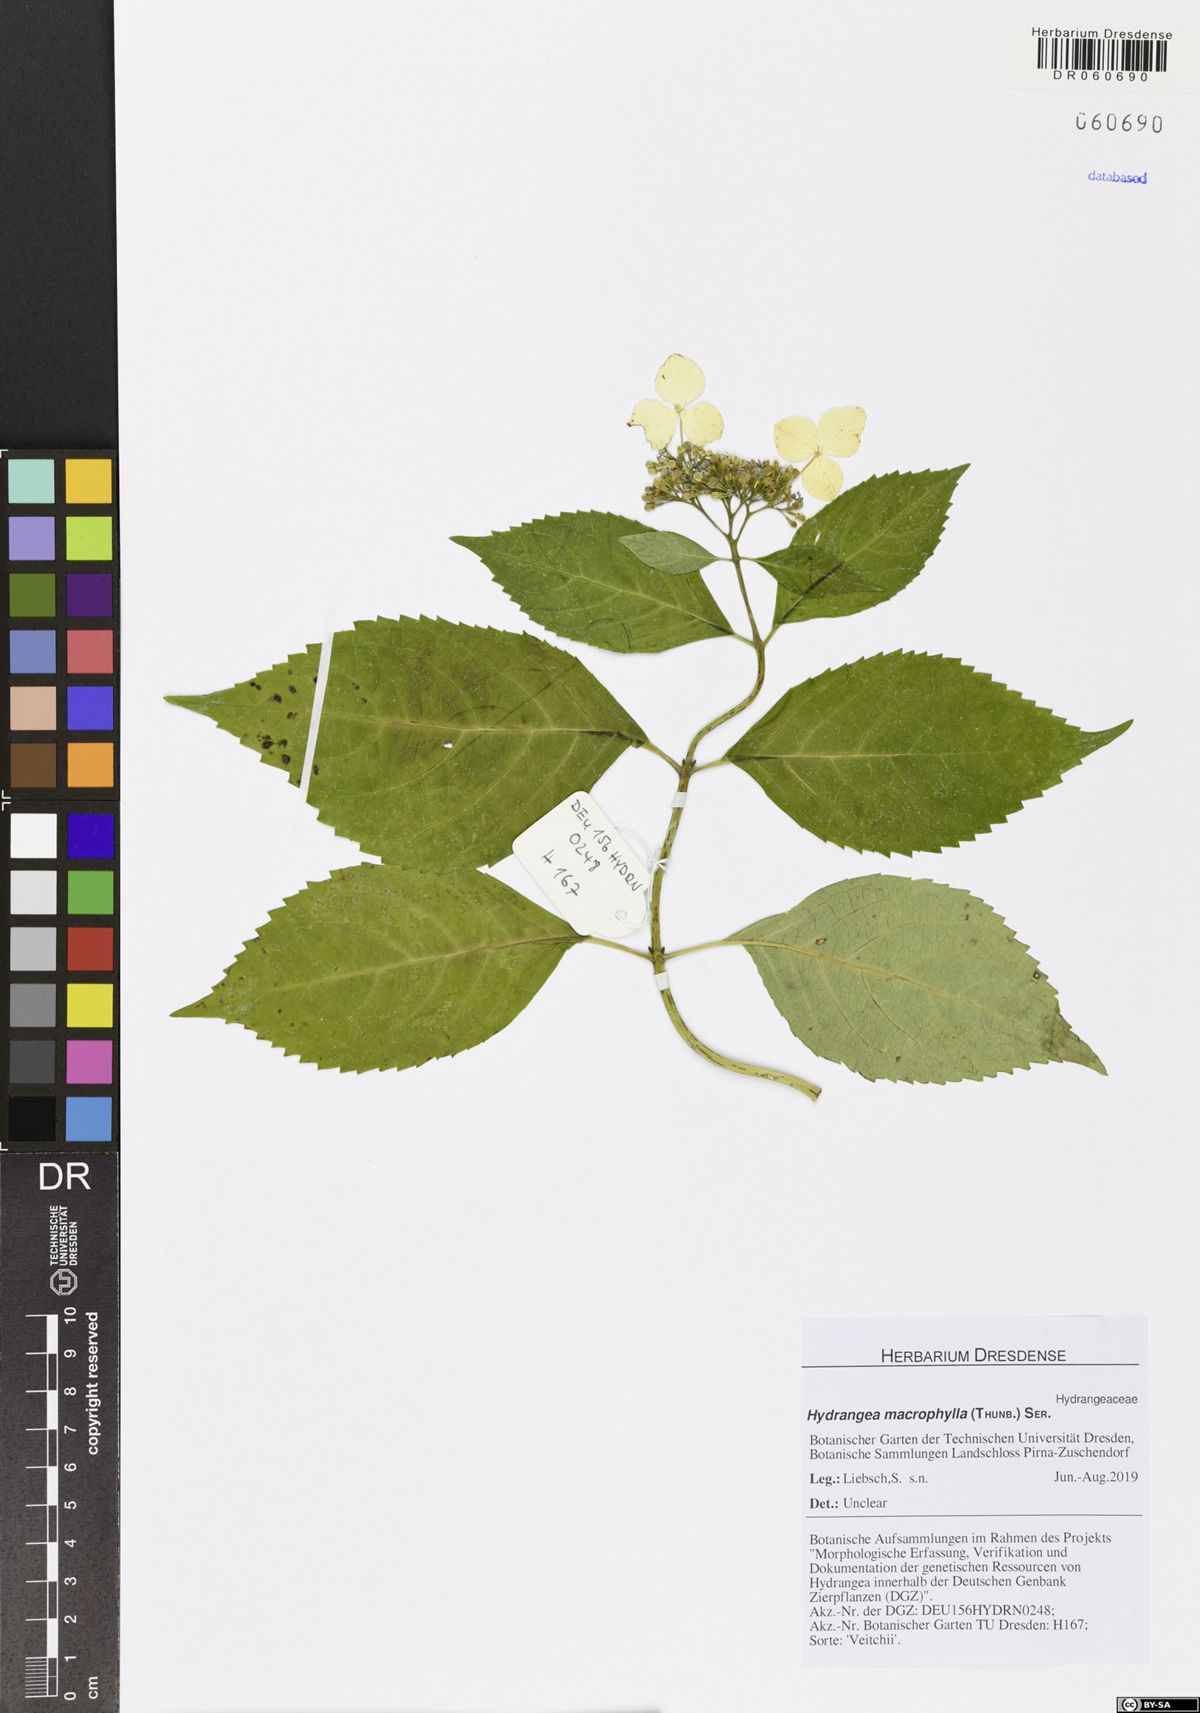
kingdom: Plantae
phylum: Tracheophyta
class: Magnoliopsida
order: Cornales
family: Hydrangeaceae
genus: Hydrangea
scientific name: Hydrangea macrophylla
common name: Hydrangea
